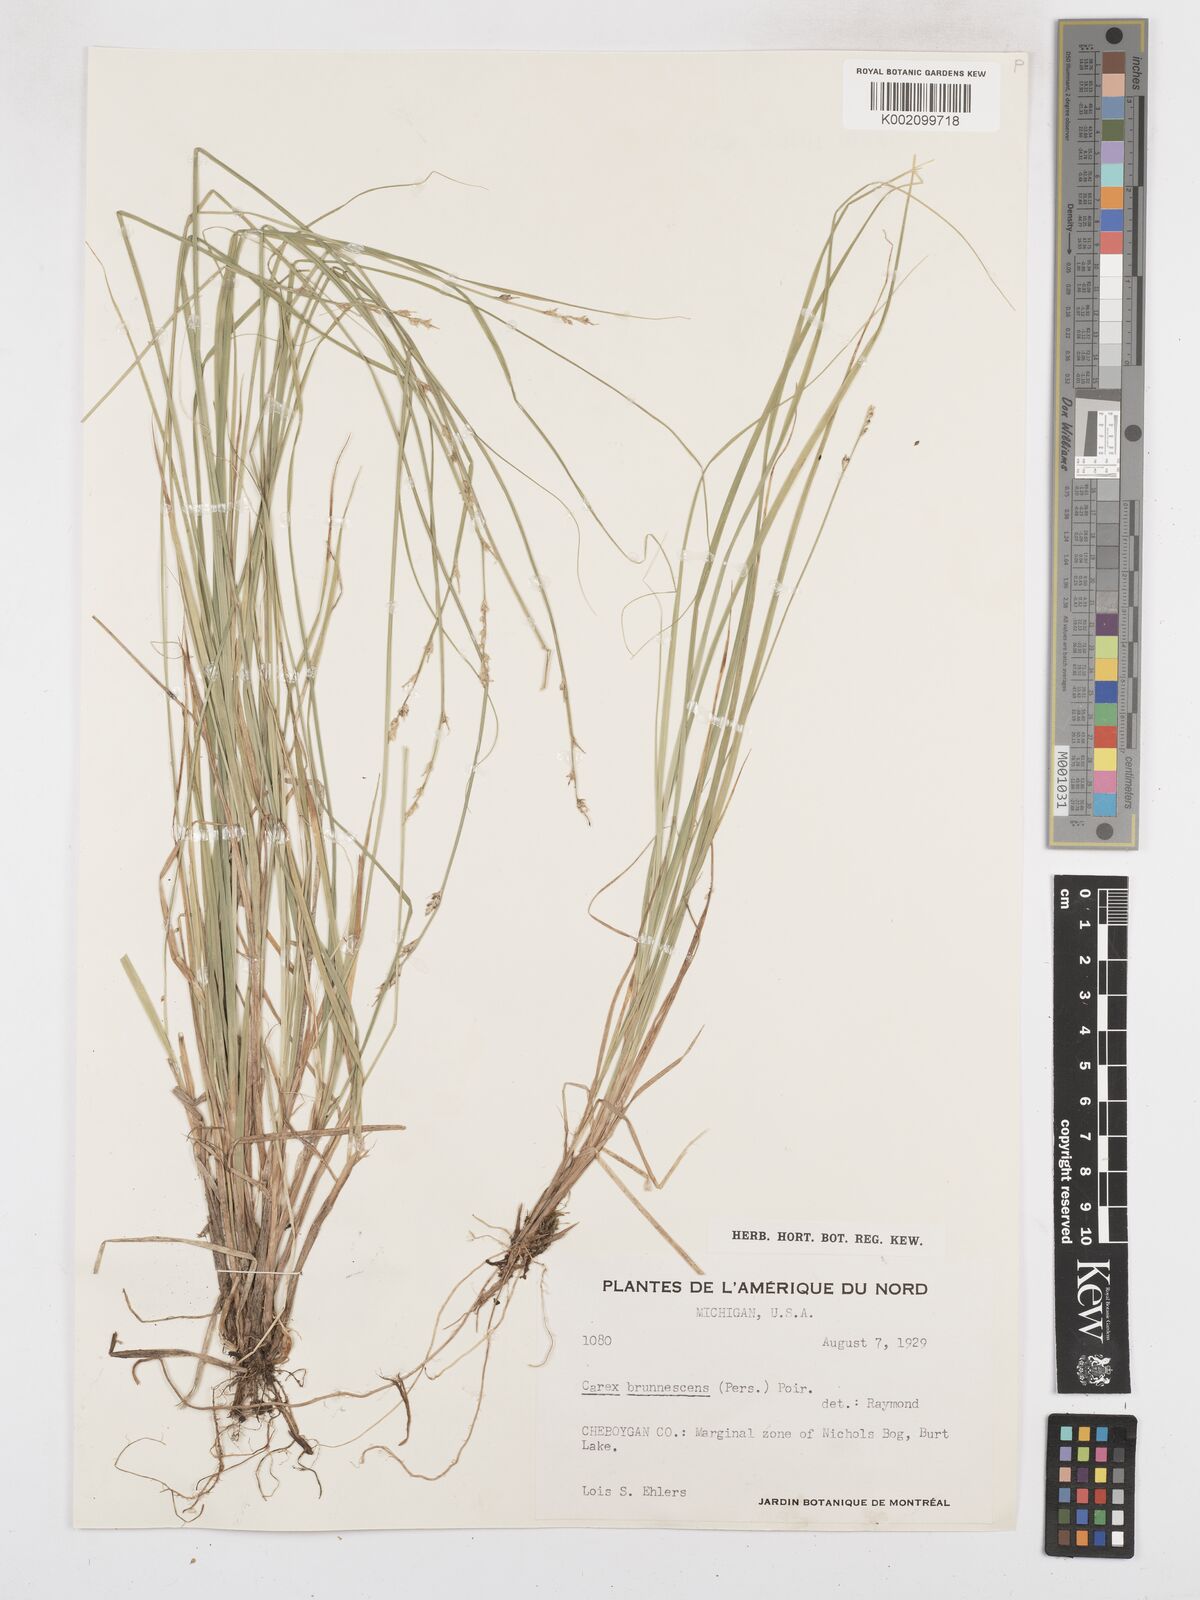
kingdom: Plantae
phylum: Tracheophyta
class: Liliopsida
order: Poales
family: Cyperaceae
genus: Carex
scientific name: Carex brunnescens
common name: Brown sedge
